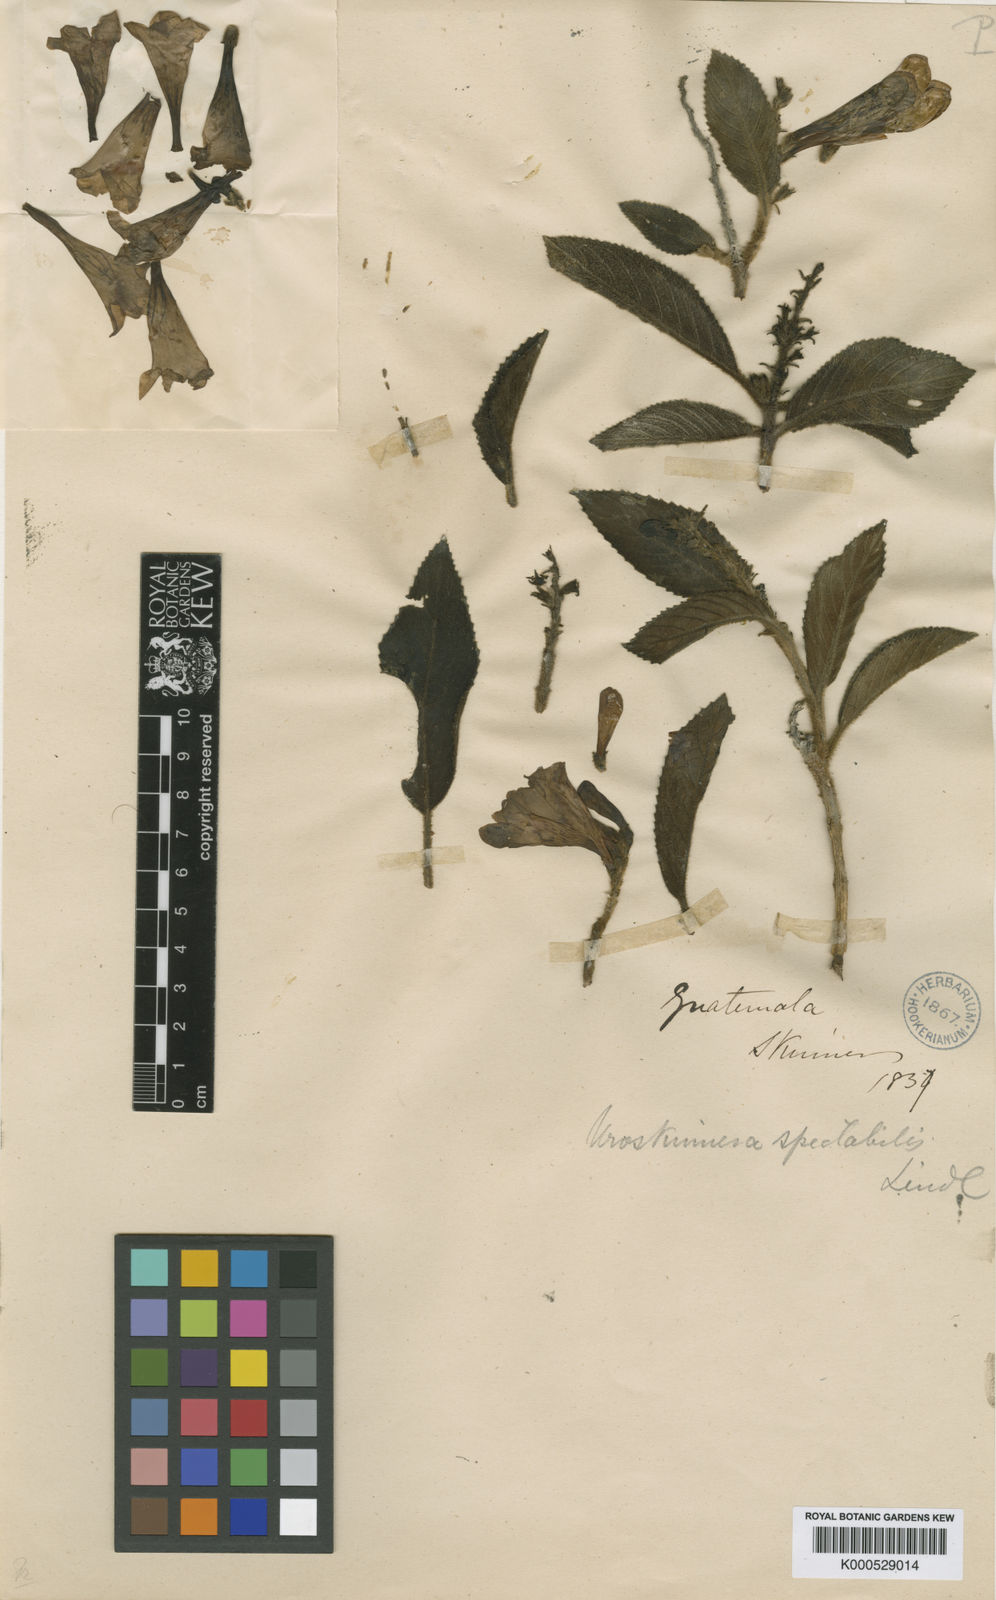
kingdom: Plantae
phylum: Tracheophyta
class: Magnoliopsida
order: Lamiales
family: Plantaginaceae
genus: Uroskinnera
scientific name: Uroskinnera spectabilis
